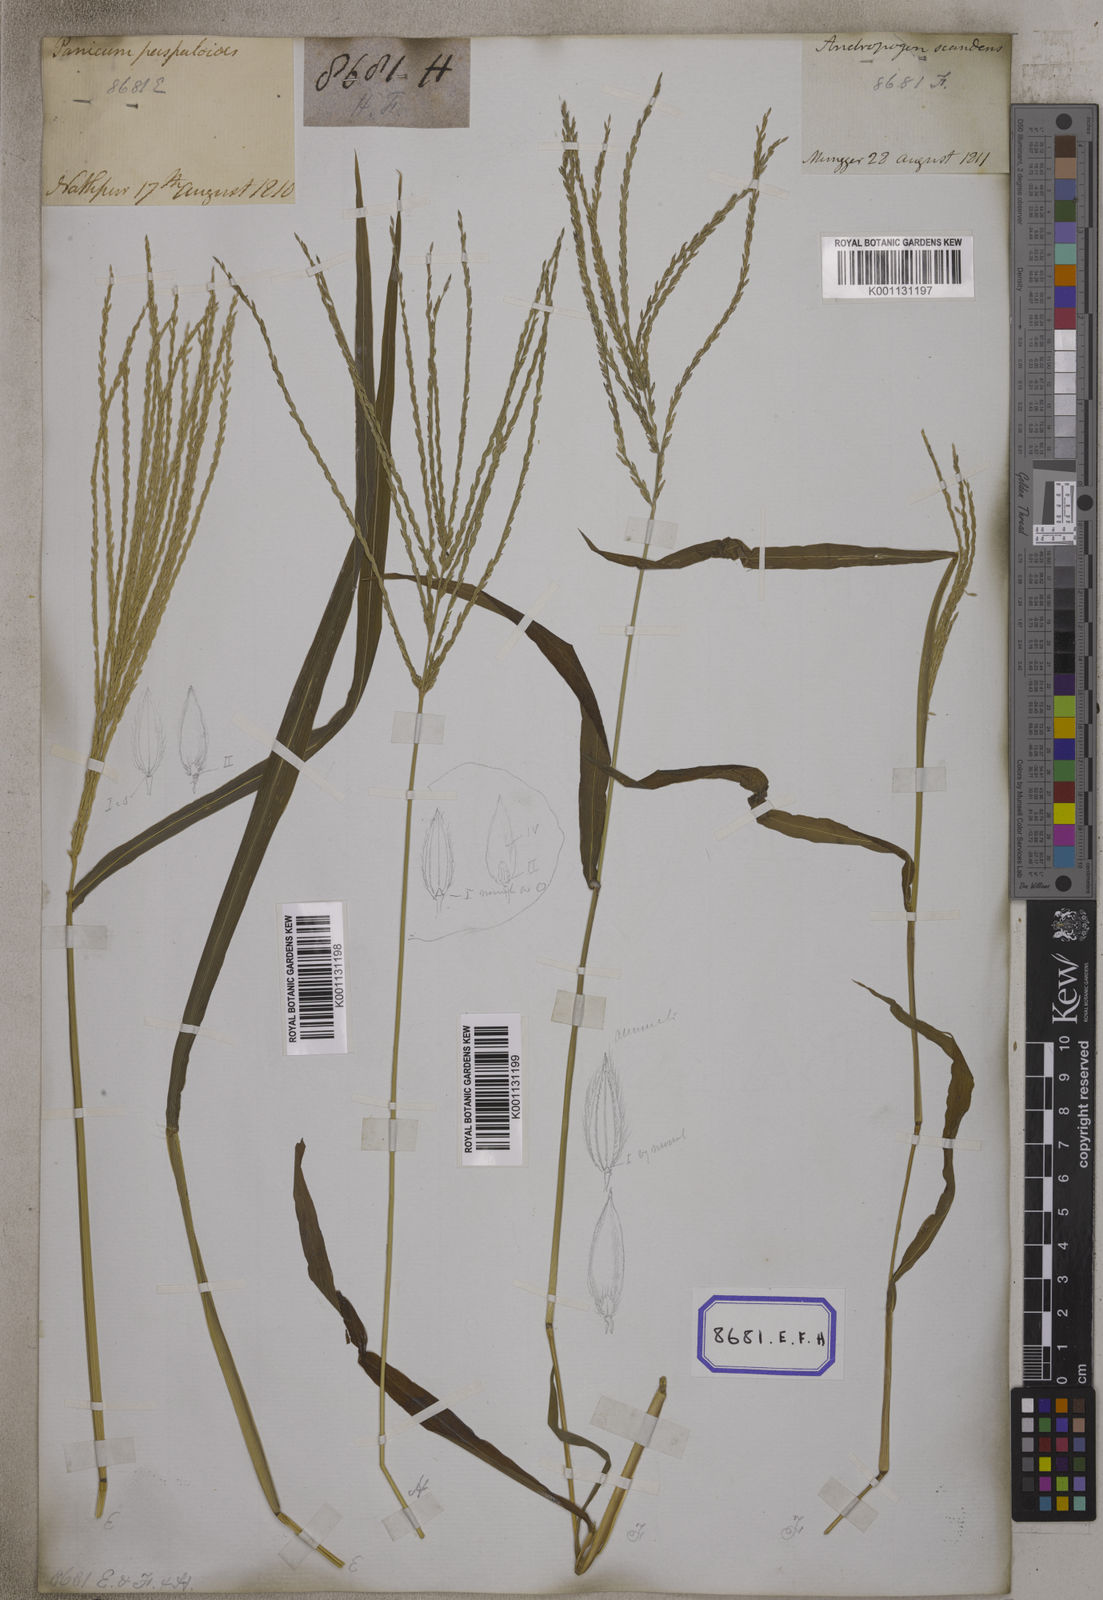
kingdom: Plantae
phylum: Tracheophyta
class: Liliopsida
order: Poales
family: Poaceae
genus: Digitaria
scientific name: Digitaria sanguinalis
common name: Hairy crabgrass
